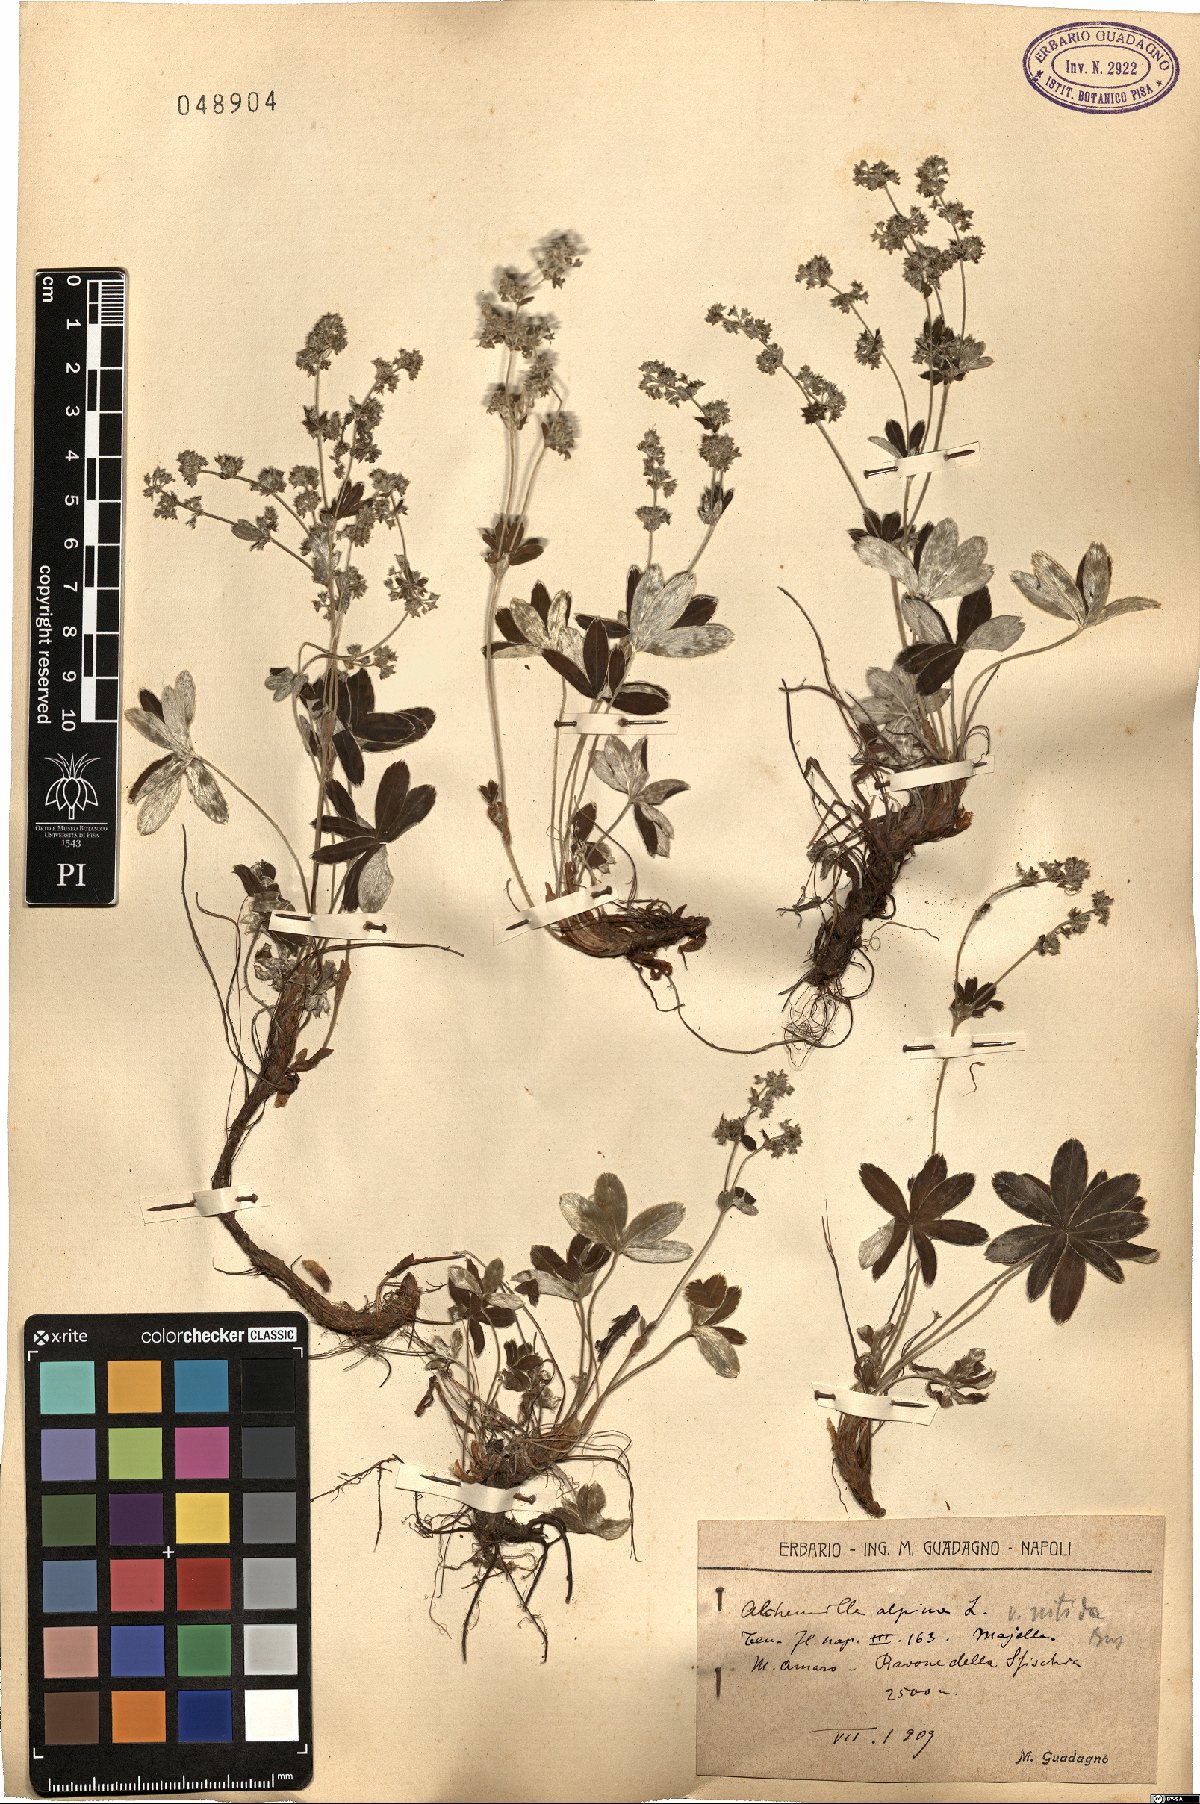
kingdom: Plantae
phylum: Tracheophyta
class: Magnoliopsida
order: Rosales
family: Rosaceae
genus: Alchemilla
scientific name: Alchemilla nitida
